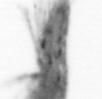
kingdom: Animalia
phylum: Arthropoda
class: Copepoda
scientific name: Copepoda
